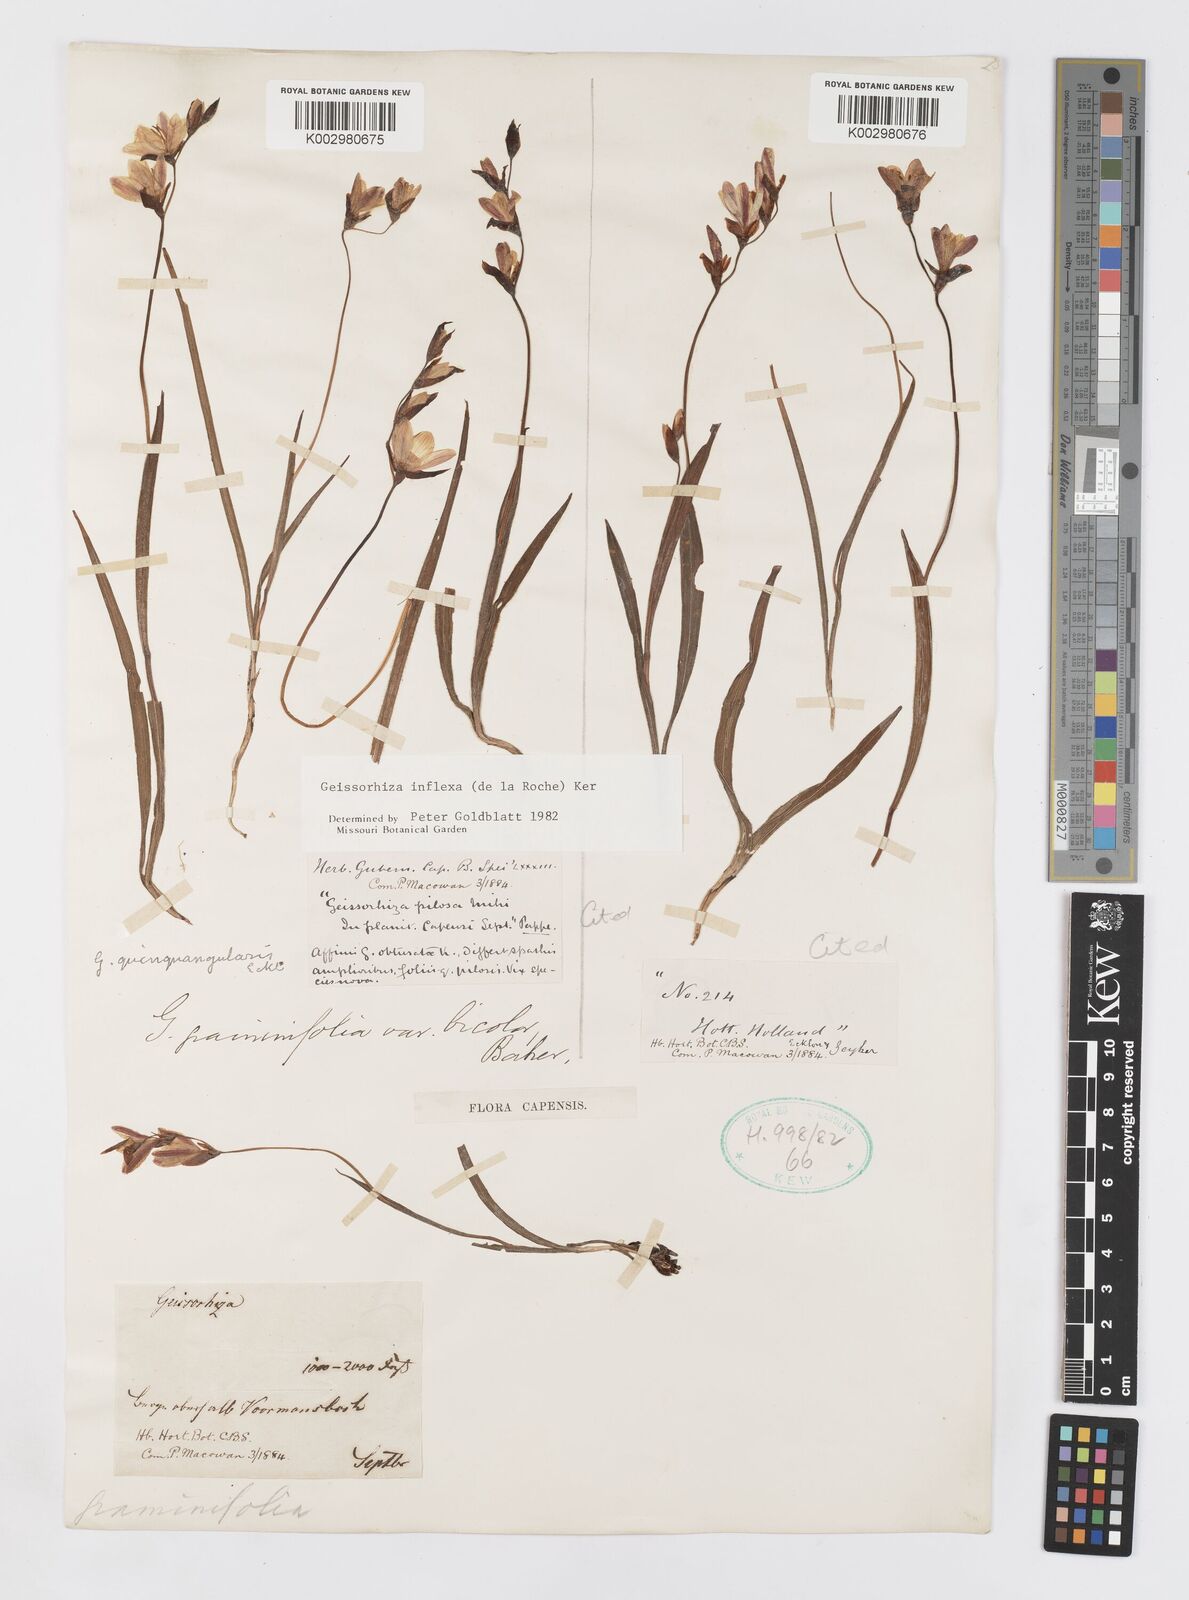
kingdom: Plantae
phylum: Tracheophyta
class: Liliopsida
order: Asparagales
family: Iridaceae
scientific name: Iridaceae
